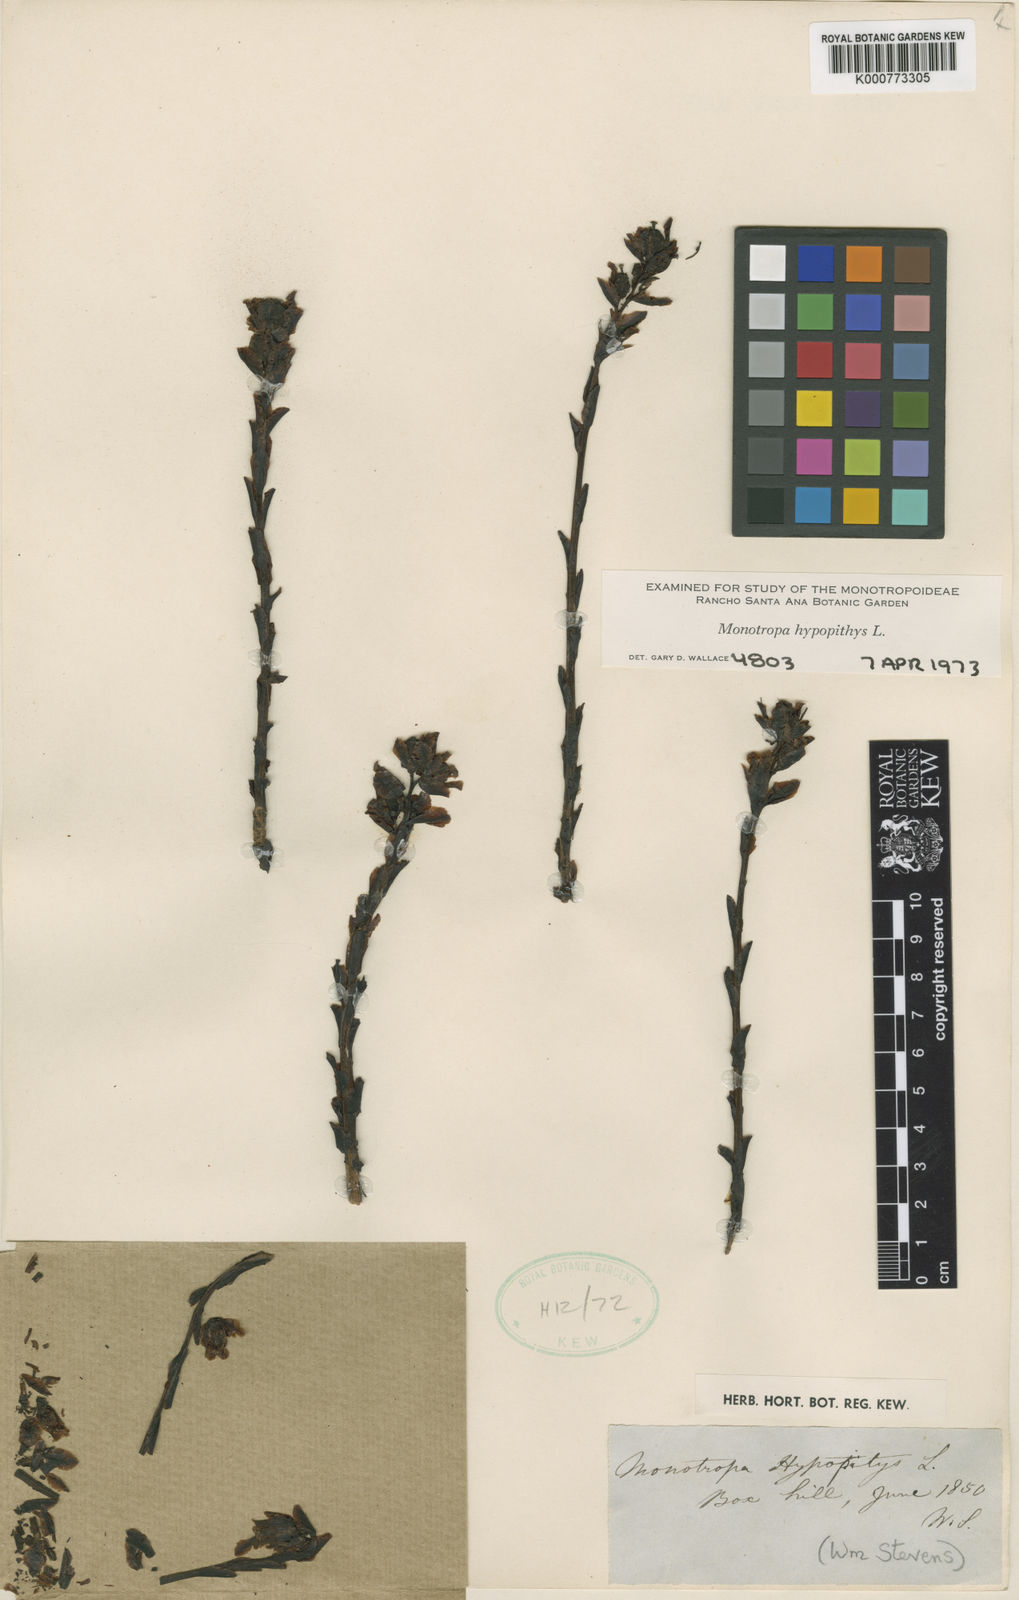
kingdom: Plantae
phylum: Tracheophyta
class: Magnoliopsida
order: Ericales
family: Ericaceae
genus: Monotropa
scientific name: Monotropa
